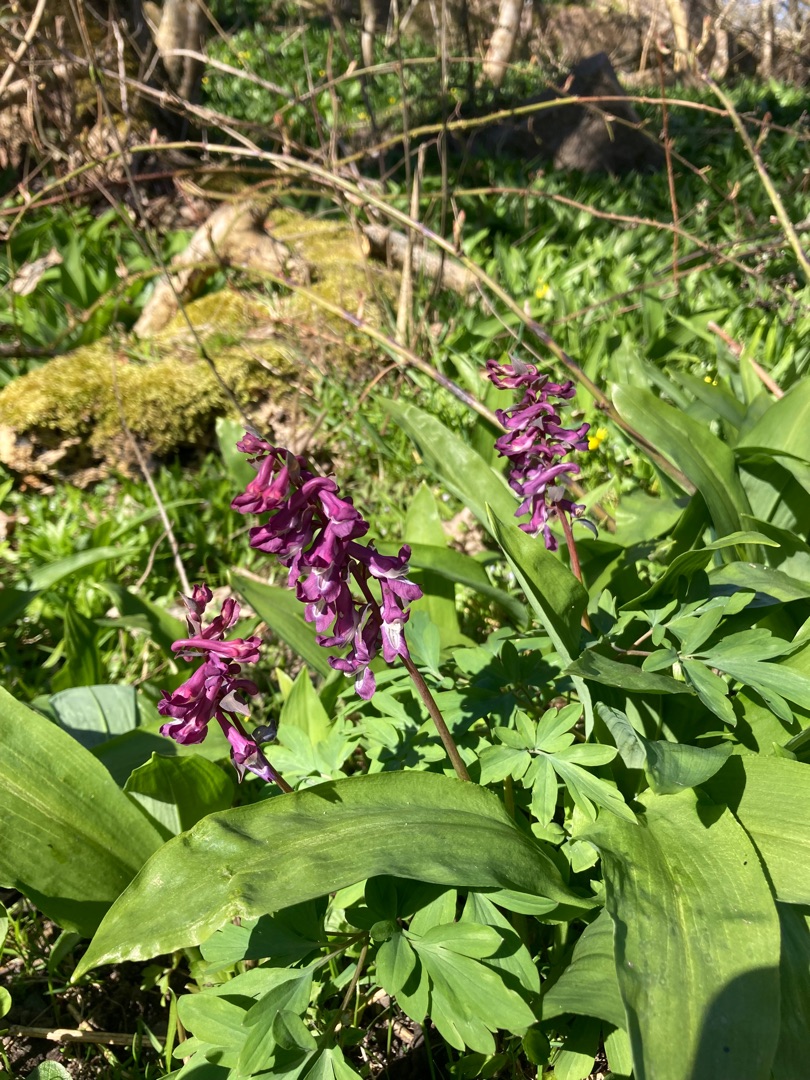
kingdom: Plantae
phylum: Tracheophyta
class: Magnoliopsida
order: Ranunculales
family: Papaveraceae
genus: Corydalis
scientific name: Corydalis cava
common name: Hulrodet lærkespore
